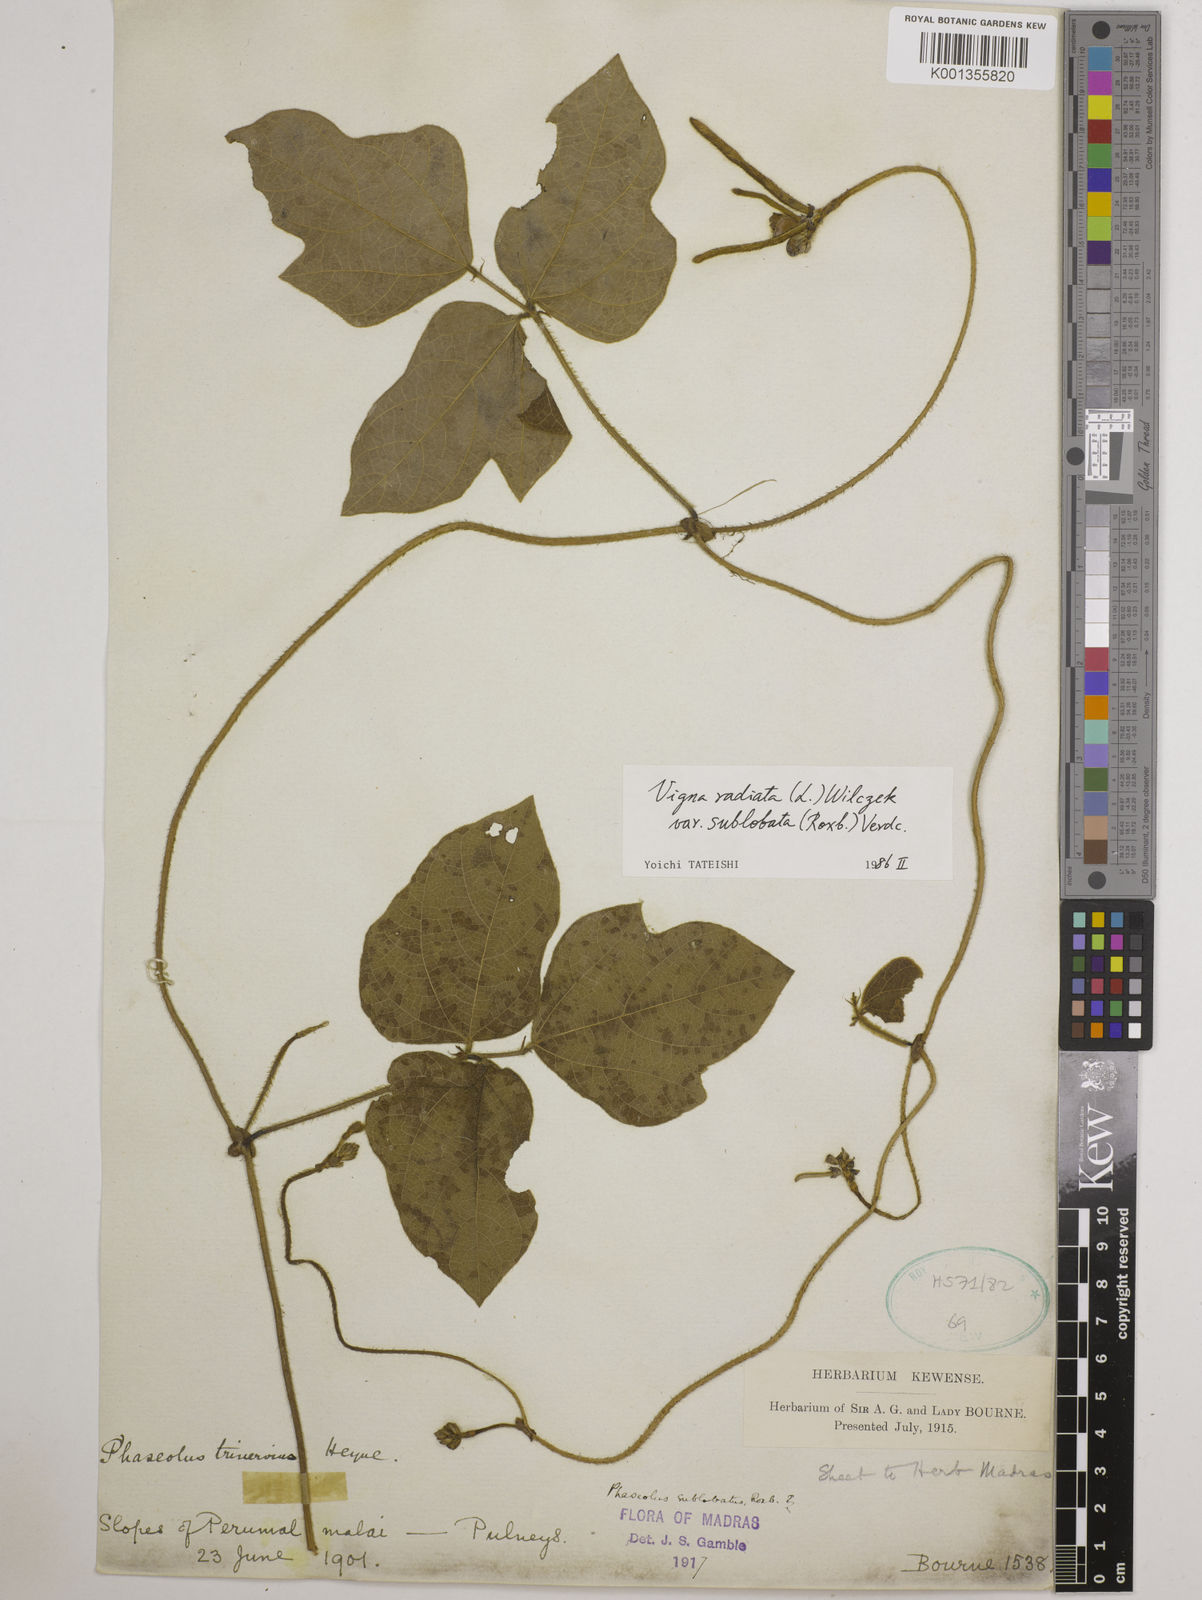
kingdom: Plantae
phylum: Tracheophyta
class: Magnoliopsida
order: Fabales
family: Fabaceae
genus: Vigna
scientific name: Vigna radiata
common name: Mung-bean
